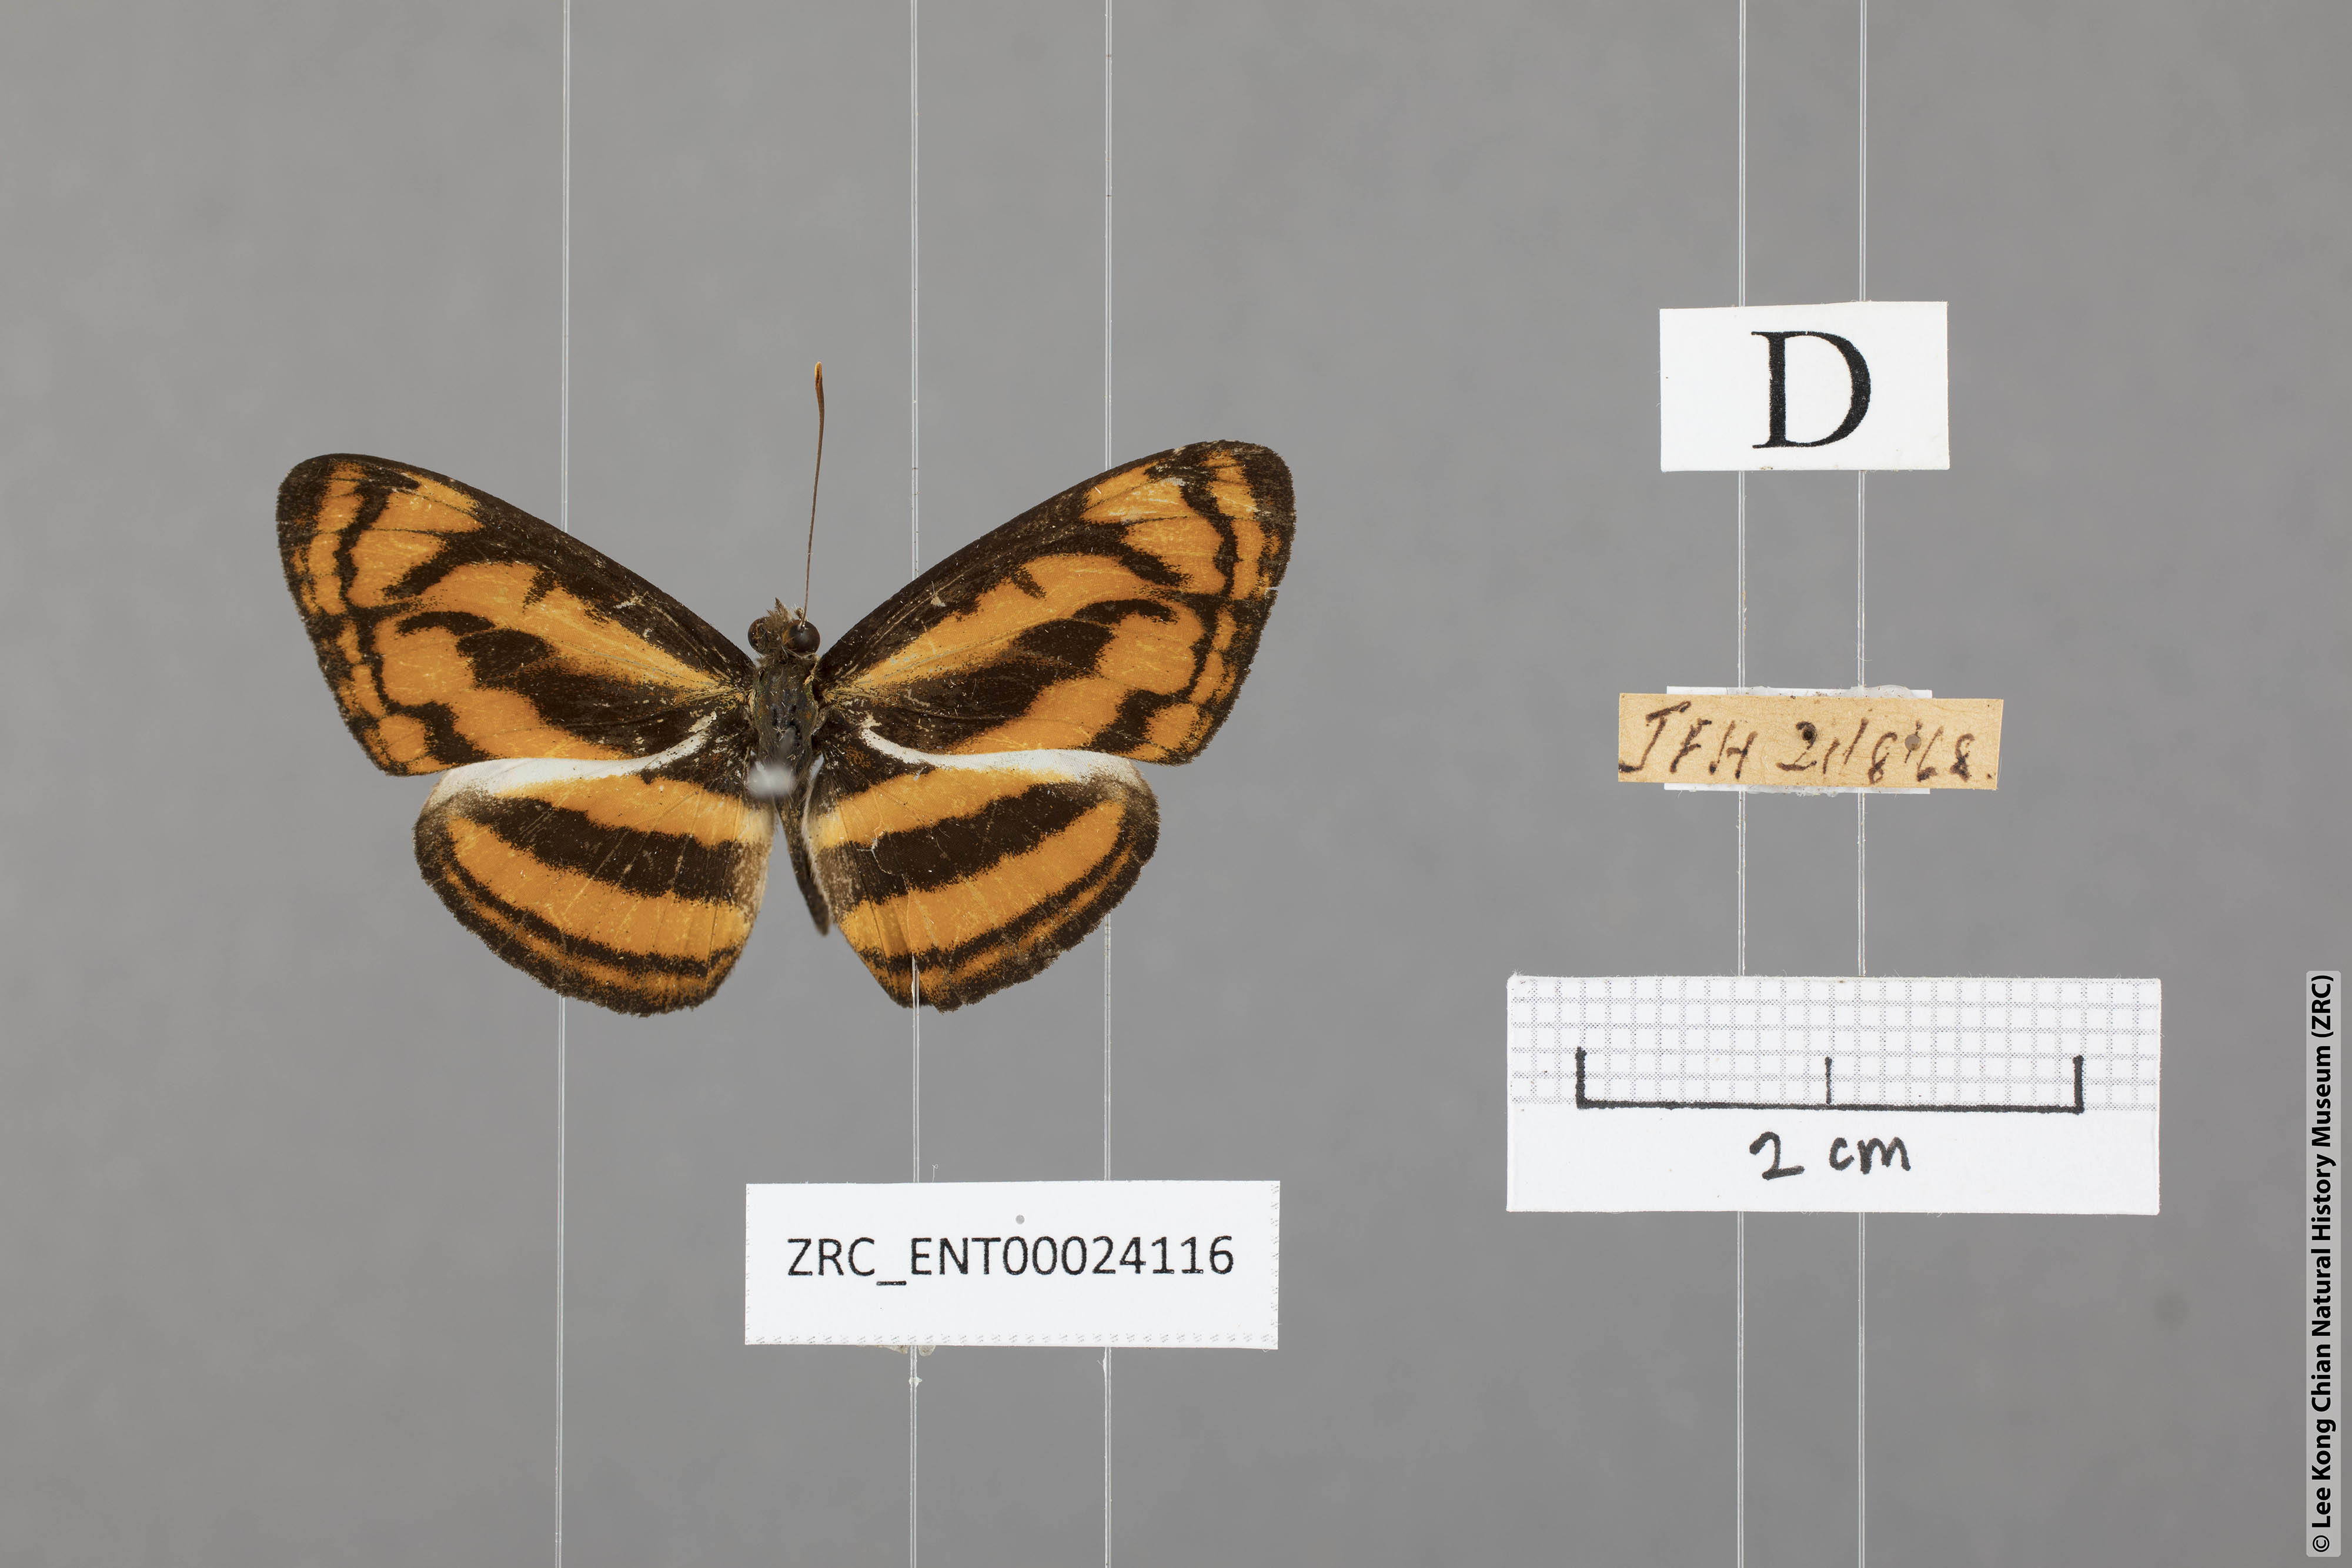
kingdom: Animalia
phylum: Arthropoda
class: Insecta
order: Lepidoptera
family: Nymphalidae
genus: Pantoporia
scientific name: Pantoporia aurelia
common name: Baby lascar
